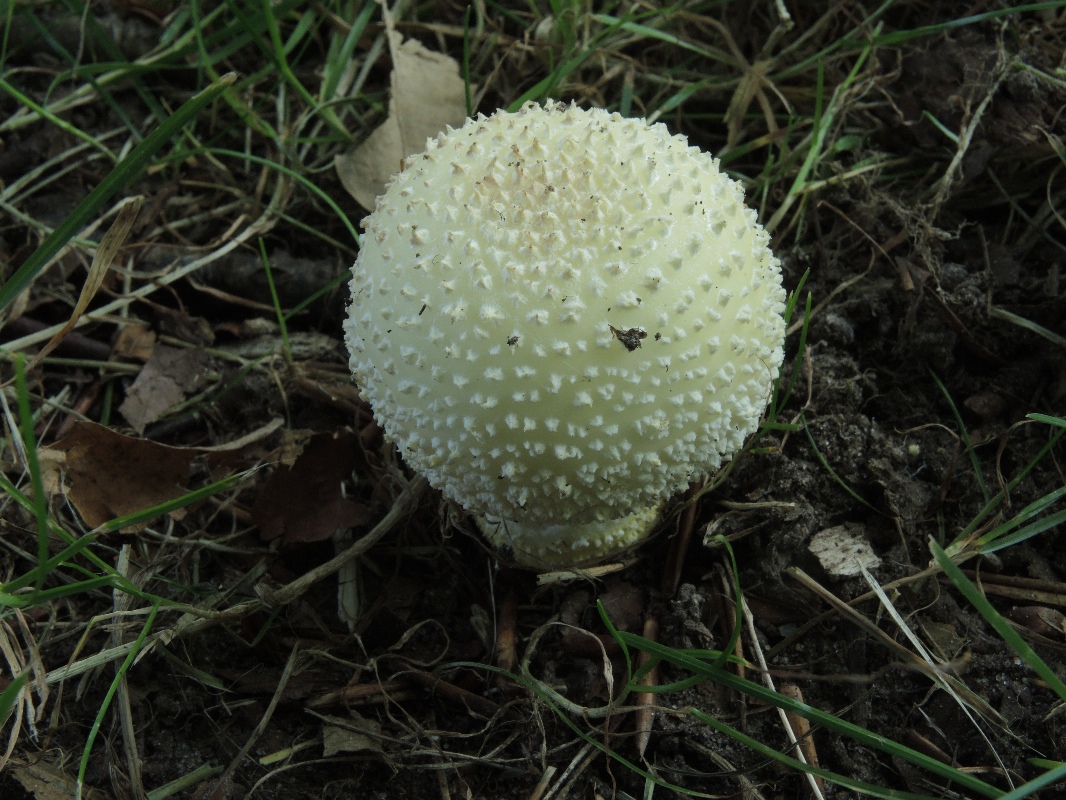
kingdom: Fungi
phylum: Basidiomycota
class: Agaricomycetes
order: Agaricales
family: Amanitaceae
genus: Amanita
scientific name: Amanita franchetii
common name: gulrandet fluesvamp
